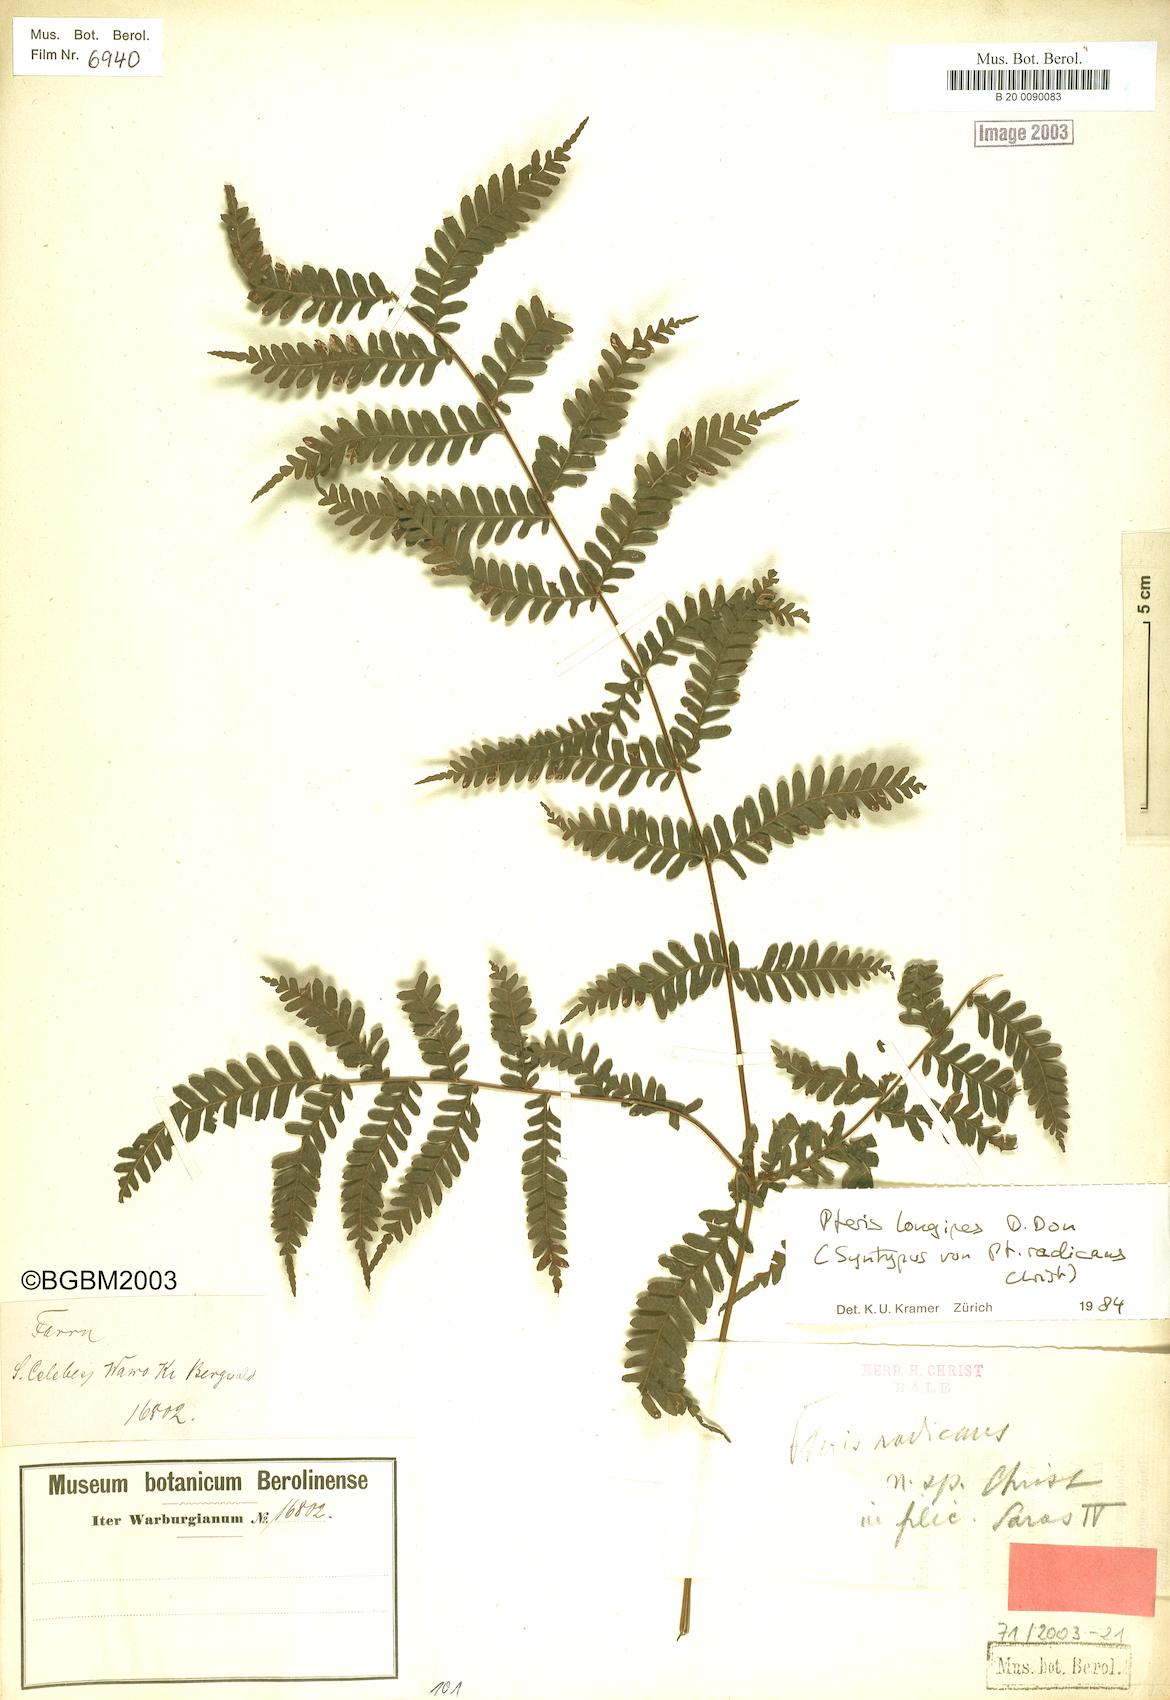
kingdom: Plantae
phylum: Tracheophyta
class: Polypodiopsida
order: Polypodiales
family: Pteridaceae
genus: Pteris
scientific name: Pteris longipes
